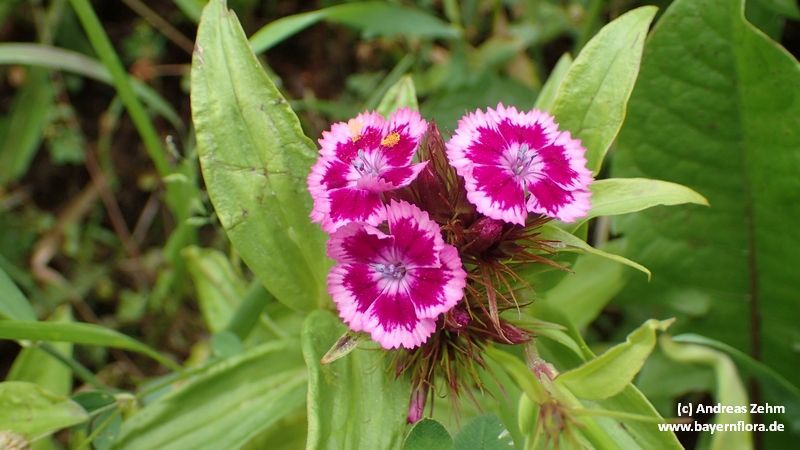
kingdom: Plantae
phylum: Tracheophyta
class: Magnoliopsida
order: Caryophyllales
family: Caryophyllaceae
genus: Dianthus
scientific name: Dianthus barbatus
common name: Sweet-william
